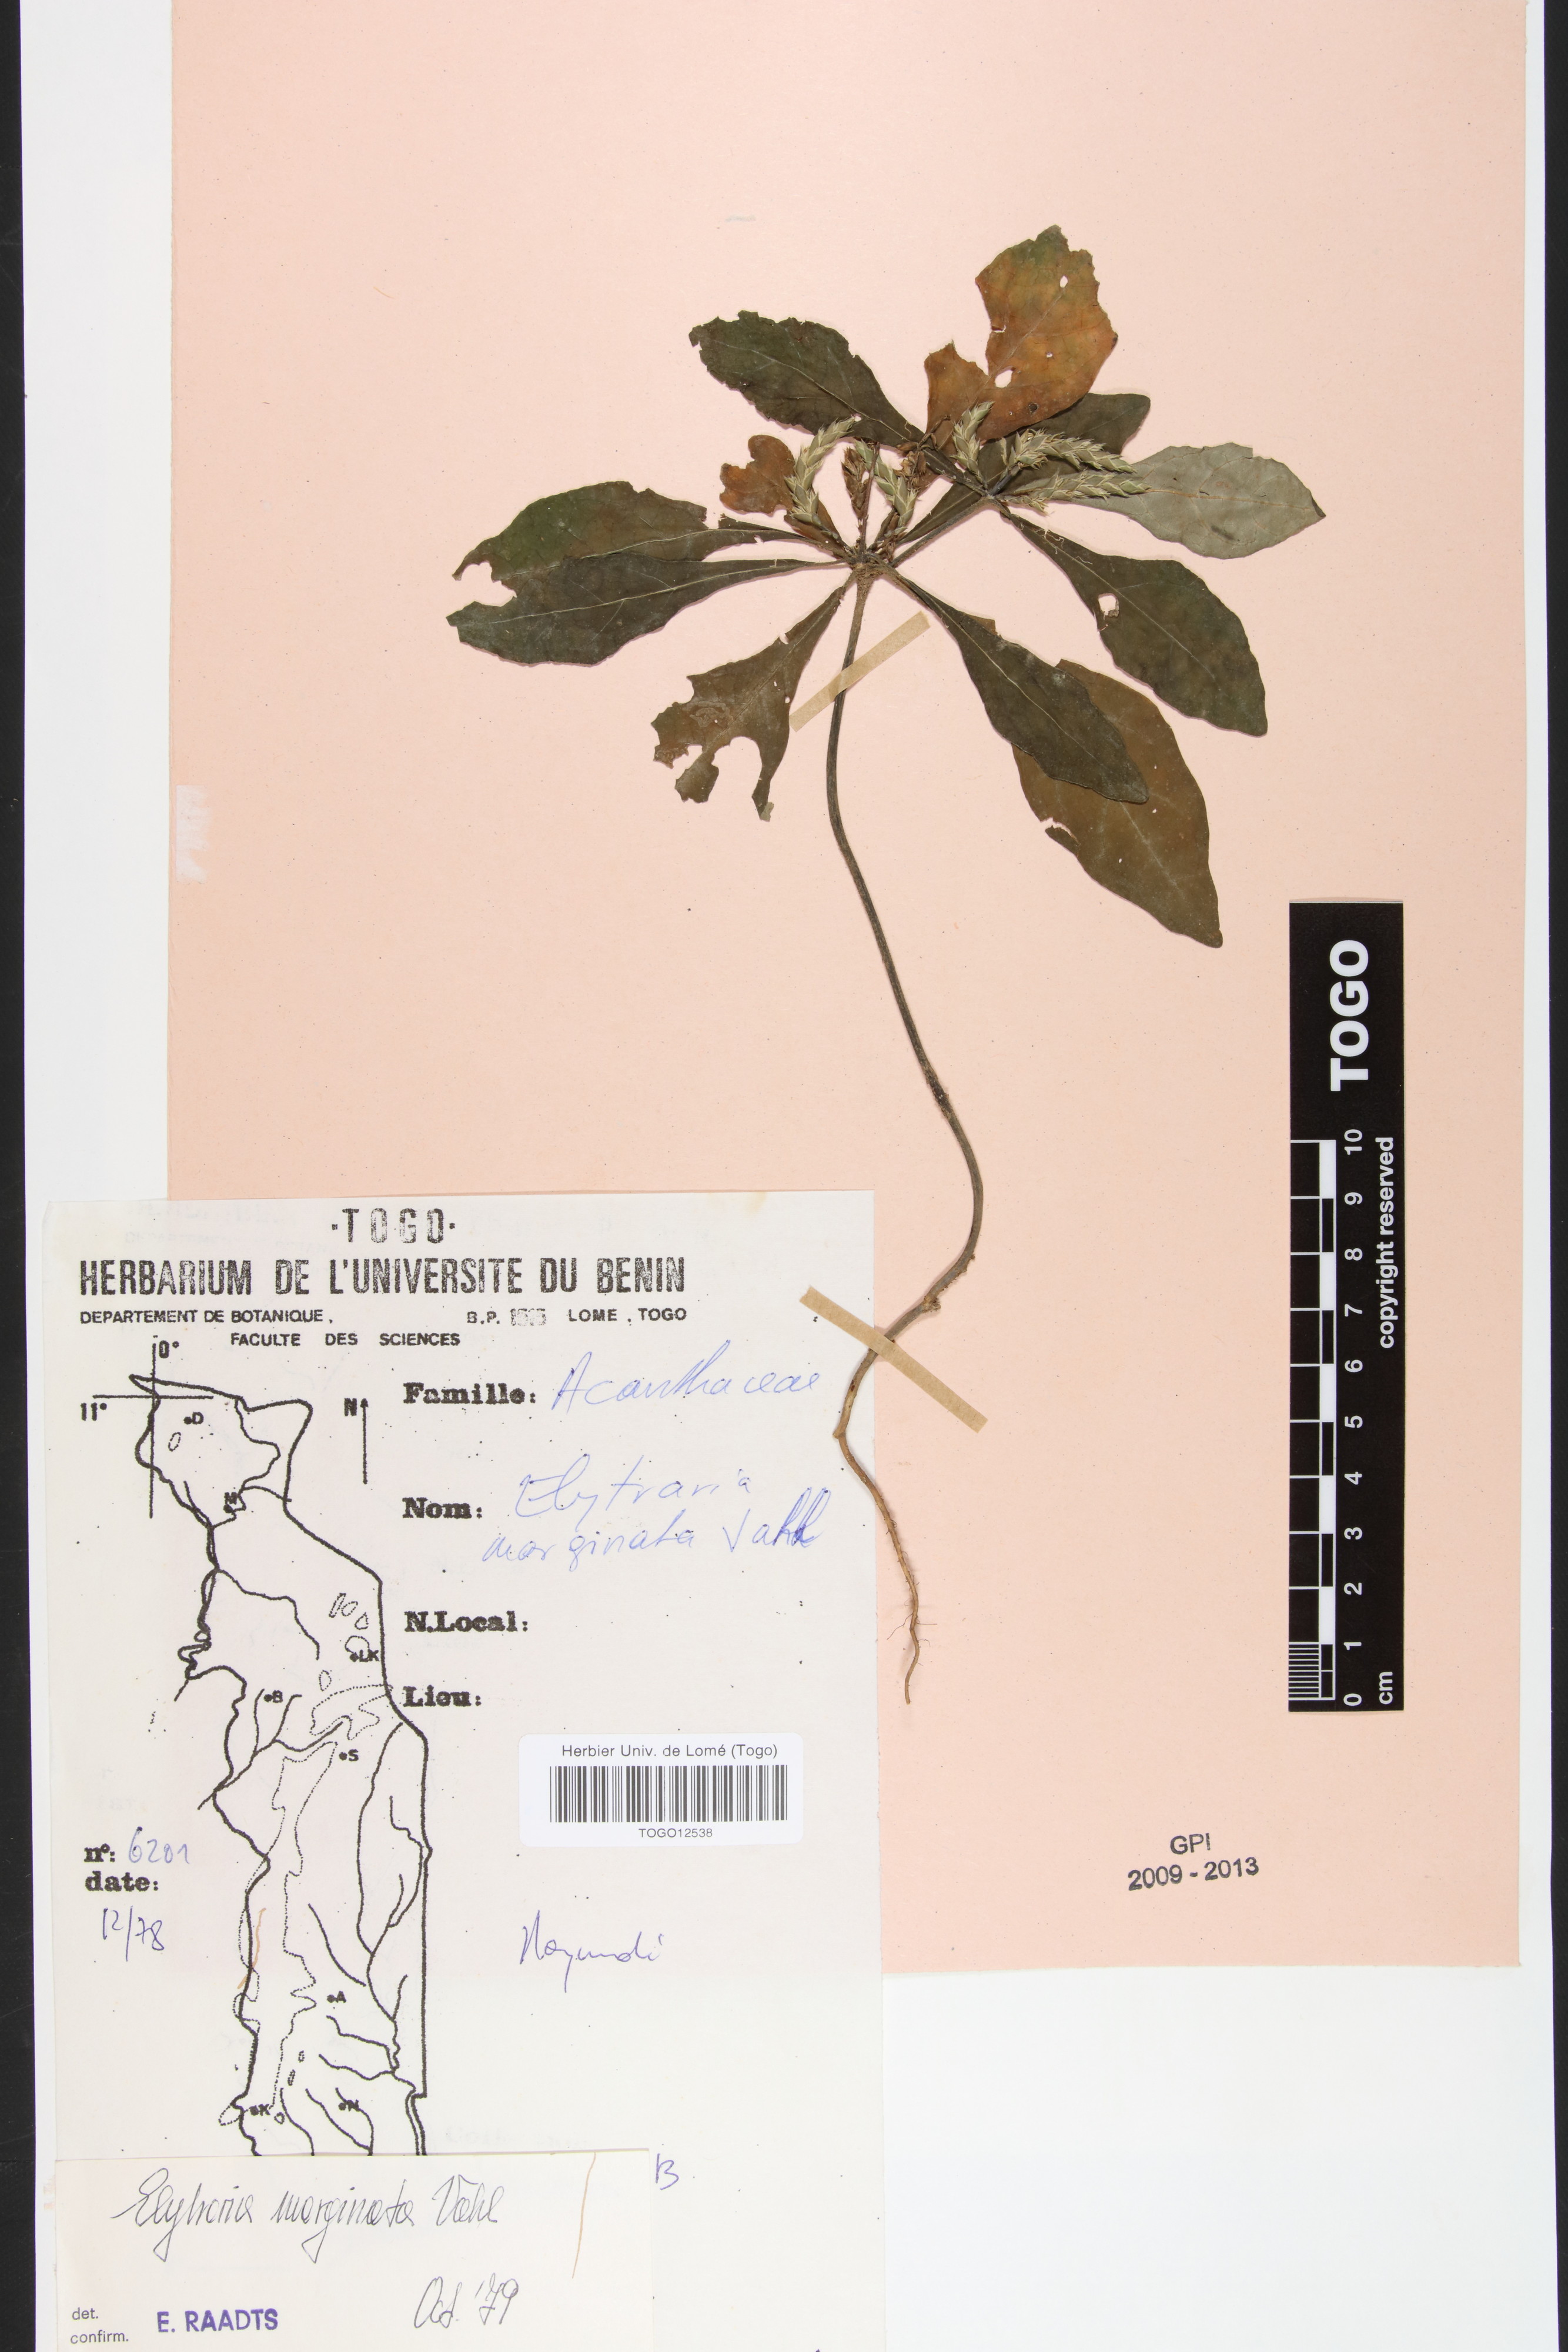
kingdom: Plantae
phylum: Tracheophyta
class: Magnoliopsida
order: Lamiales
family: Acanthaceae
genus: Elytraria
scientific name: Elytraria marginata
